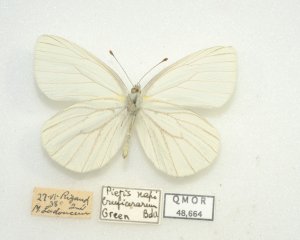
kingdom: Animalia
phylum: Arthropoda
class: Insecta
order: Lepidoptera
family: Pieridae
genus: Pieris
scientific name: Pieris oleracea
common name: Mustard White
